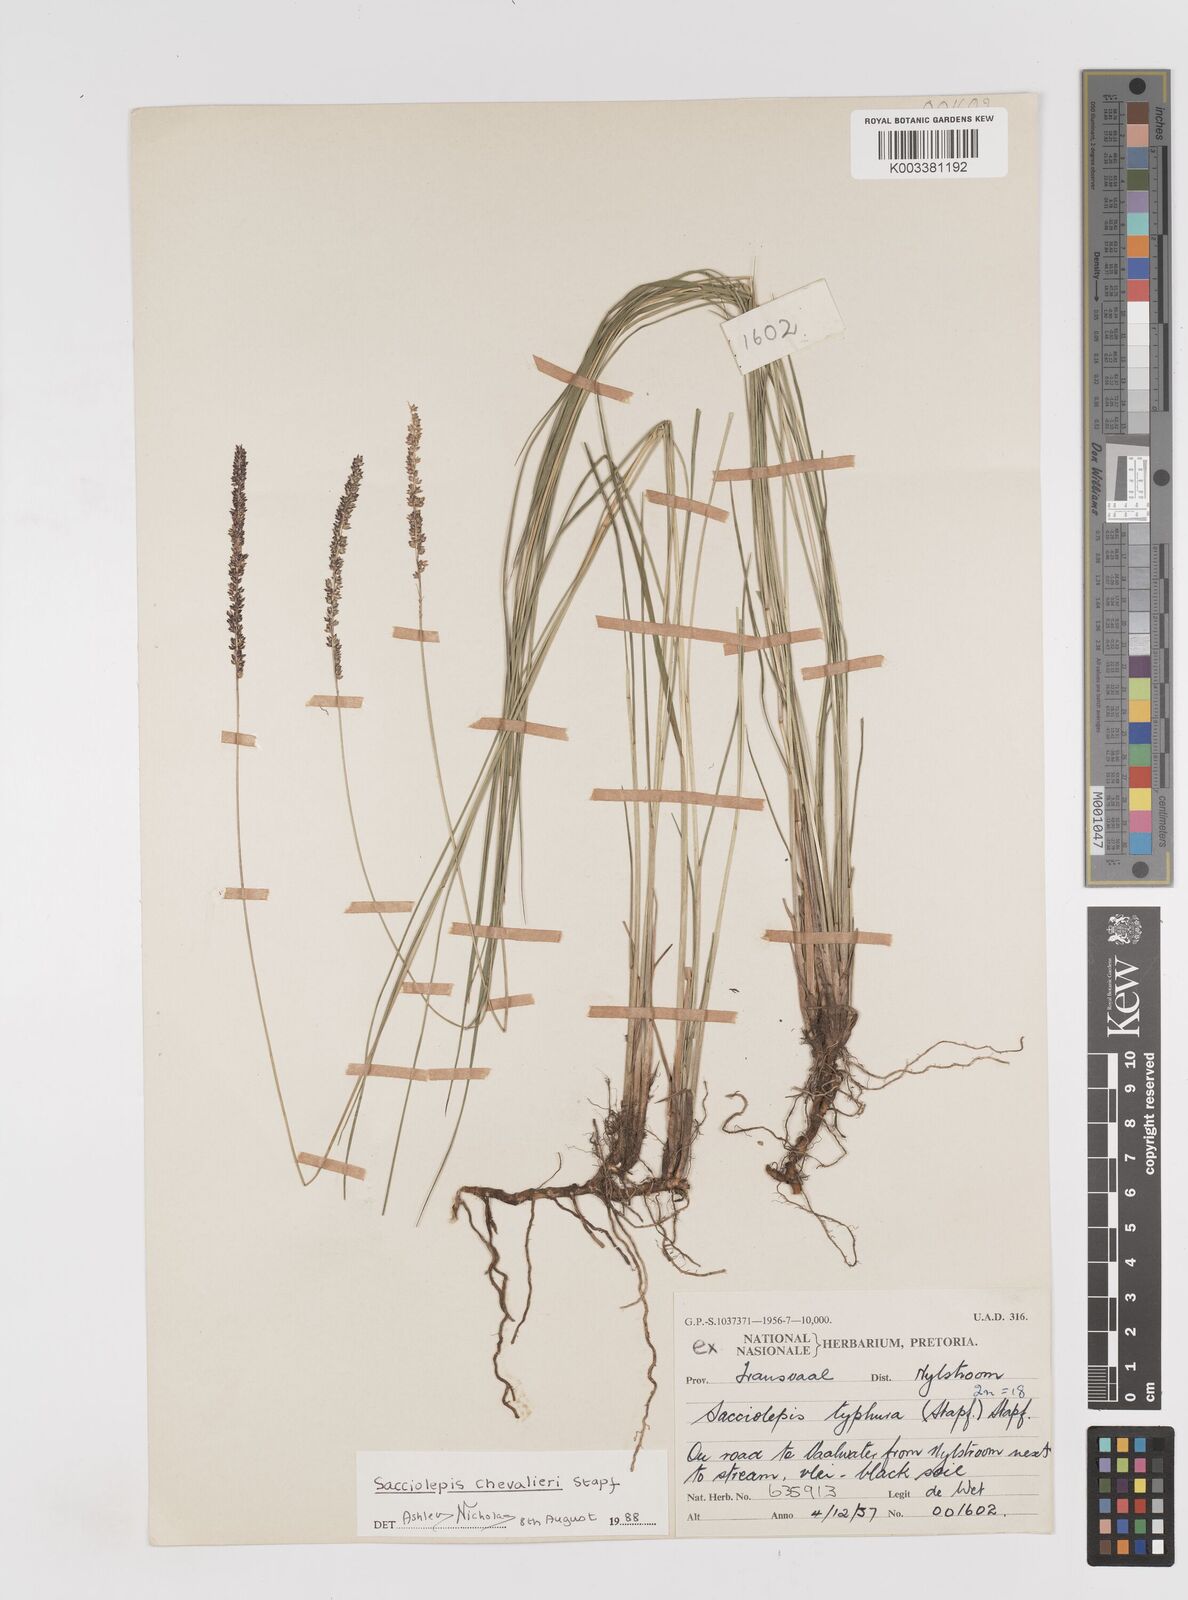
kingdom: Plantae
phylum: Tracheophyta
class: Liliopsida
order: Poales
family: Poaceae
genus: Sacciolepis
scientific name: Sacciolepis chevalieri
